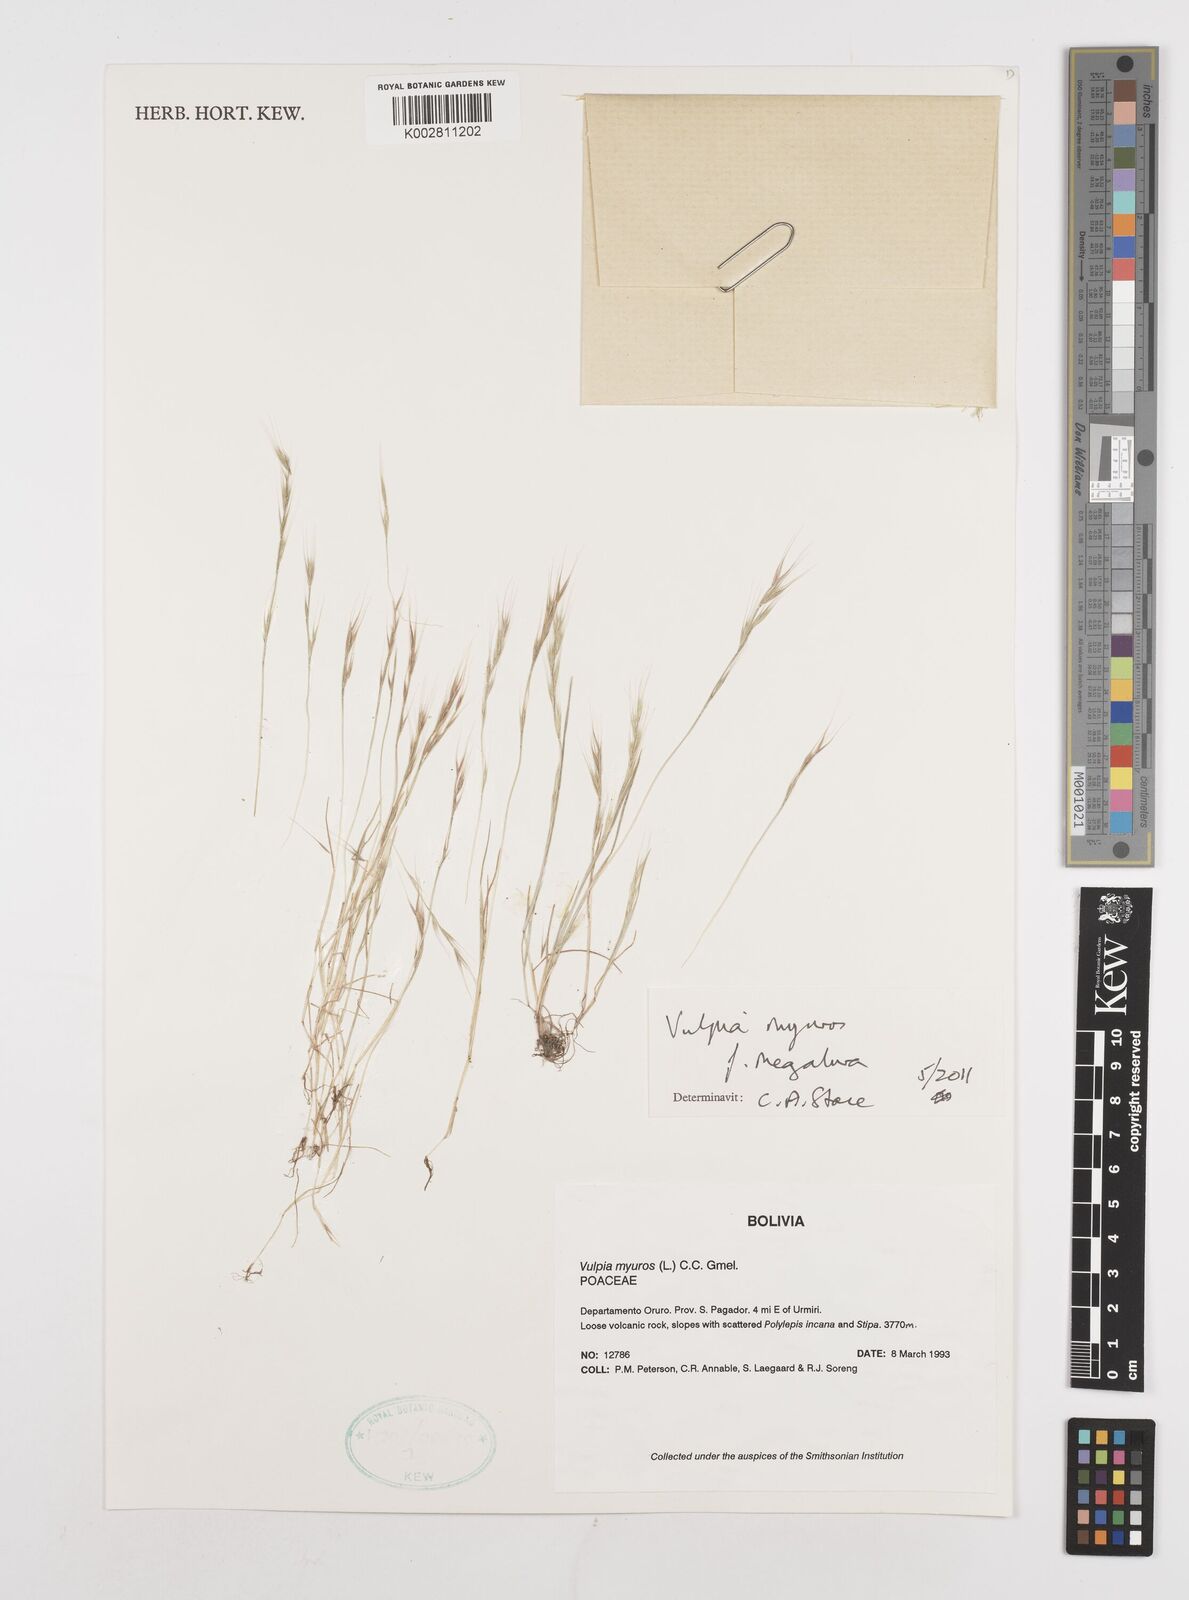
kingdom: Plantae
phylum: Tracheophyta
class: Liliopsida
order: Poales
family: Poaceae
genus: Festuca
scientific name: Festuca myuros
